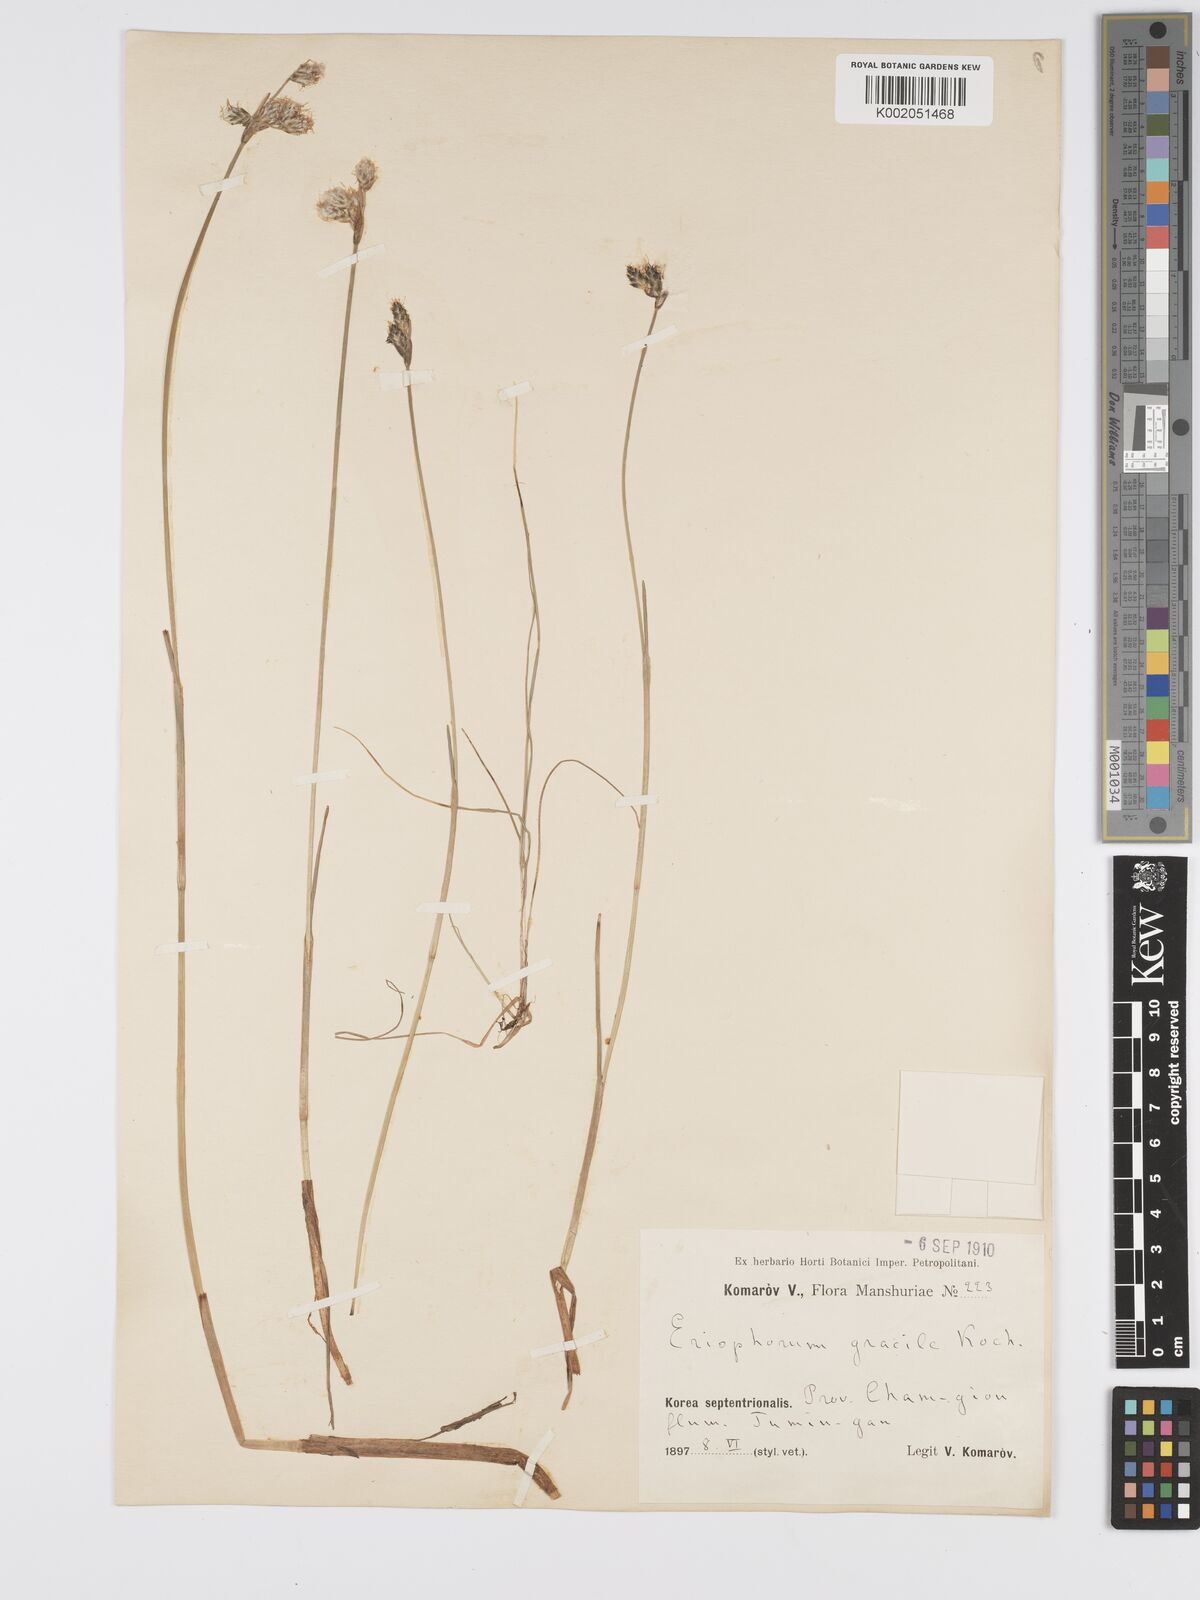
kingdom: Plantae
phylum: Tracheophyta
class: Liliopsida
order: Poales
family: Cyperaceae
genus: Eriophorum
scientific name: Eriophorum gracile
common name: Slender cottongrass
